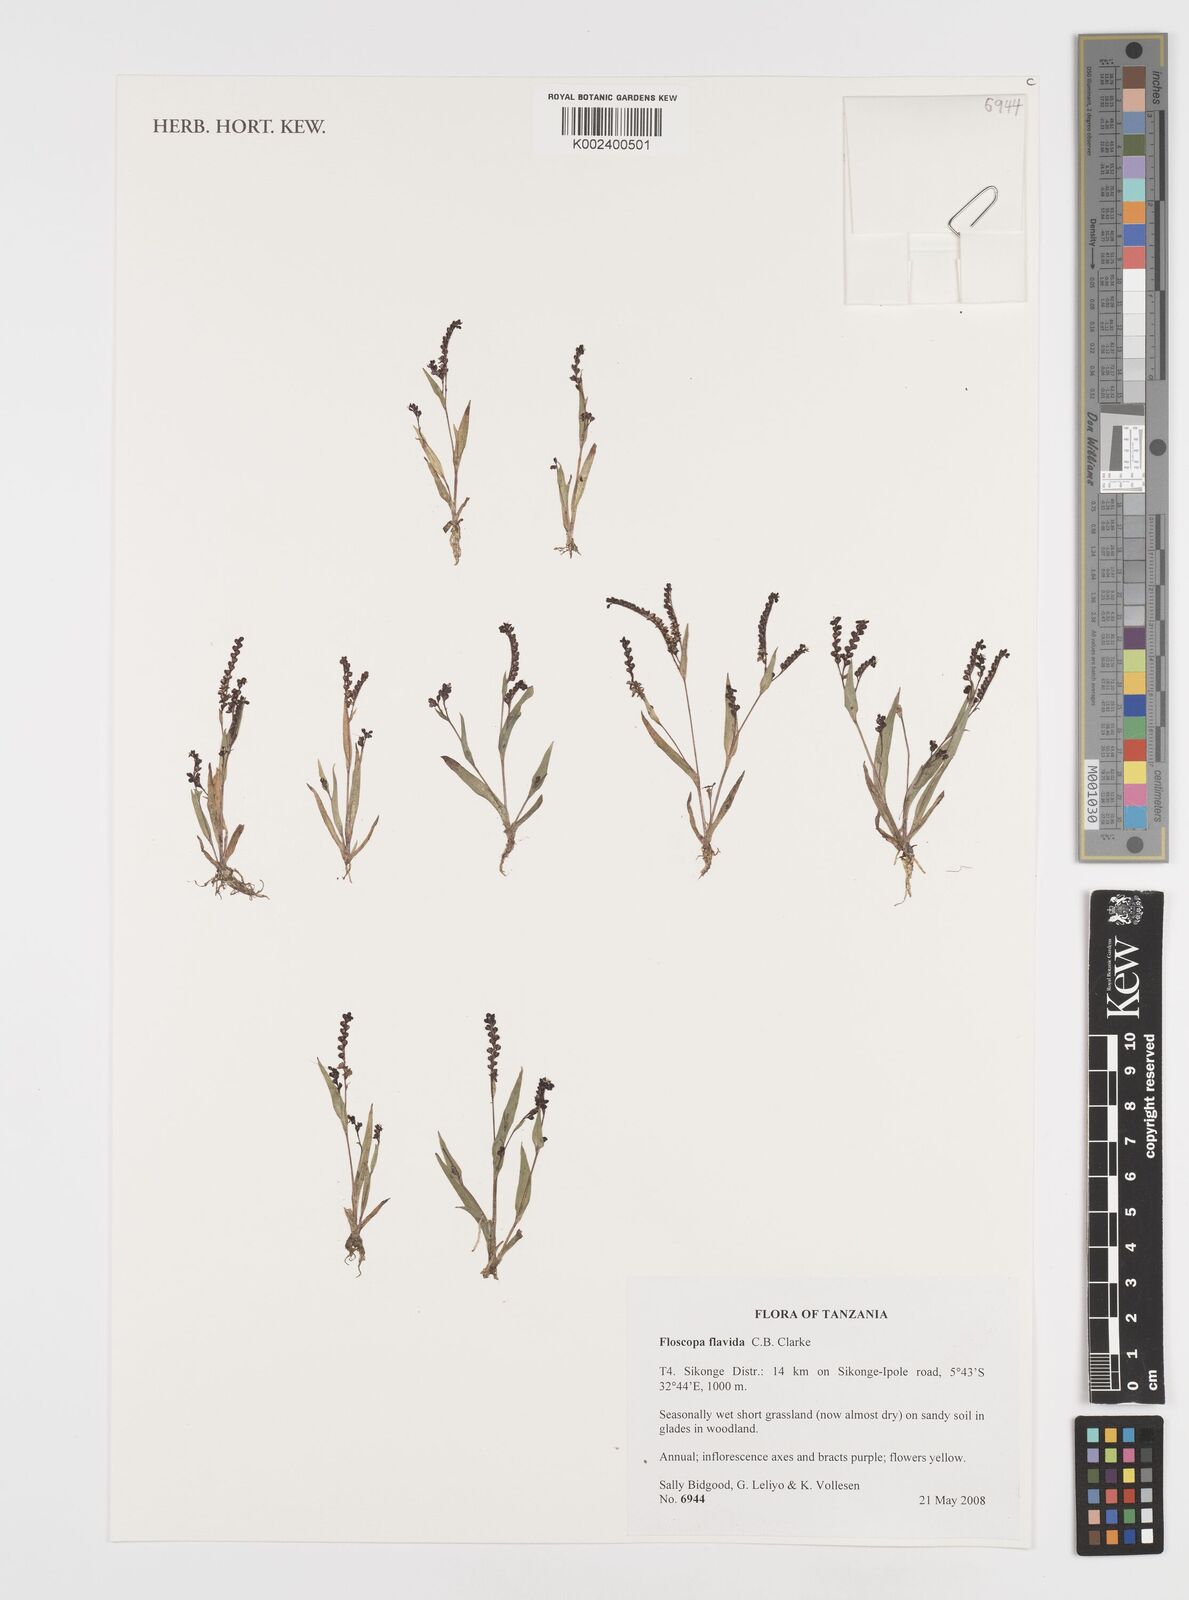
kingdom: Plantae
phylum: Tracheophyta
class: Liliopsida
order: Commelinales
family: Commelinaceae
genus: Floscopa
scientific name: Floscopa flavida
